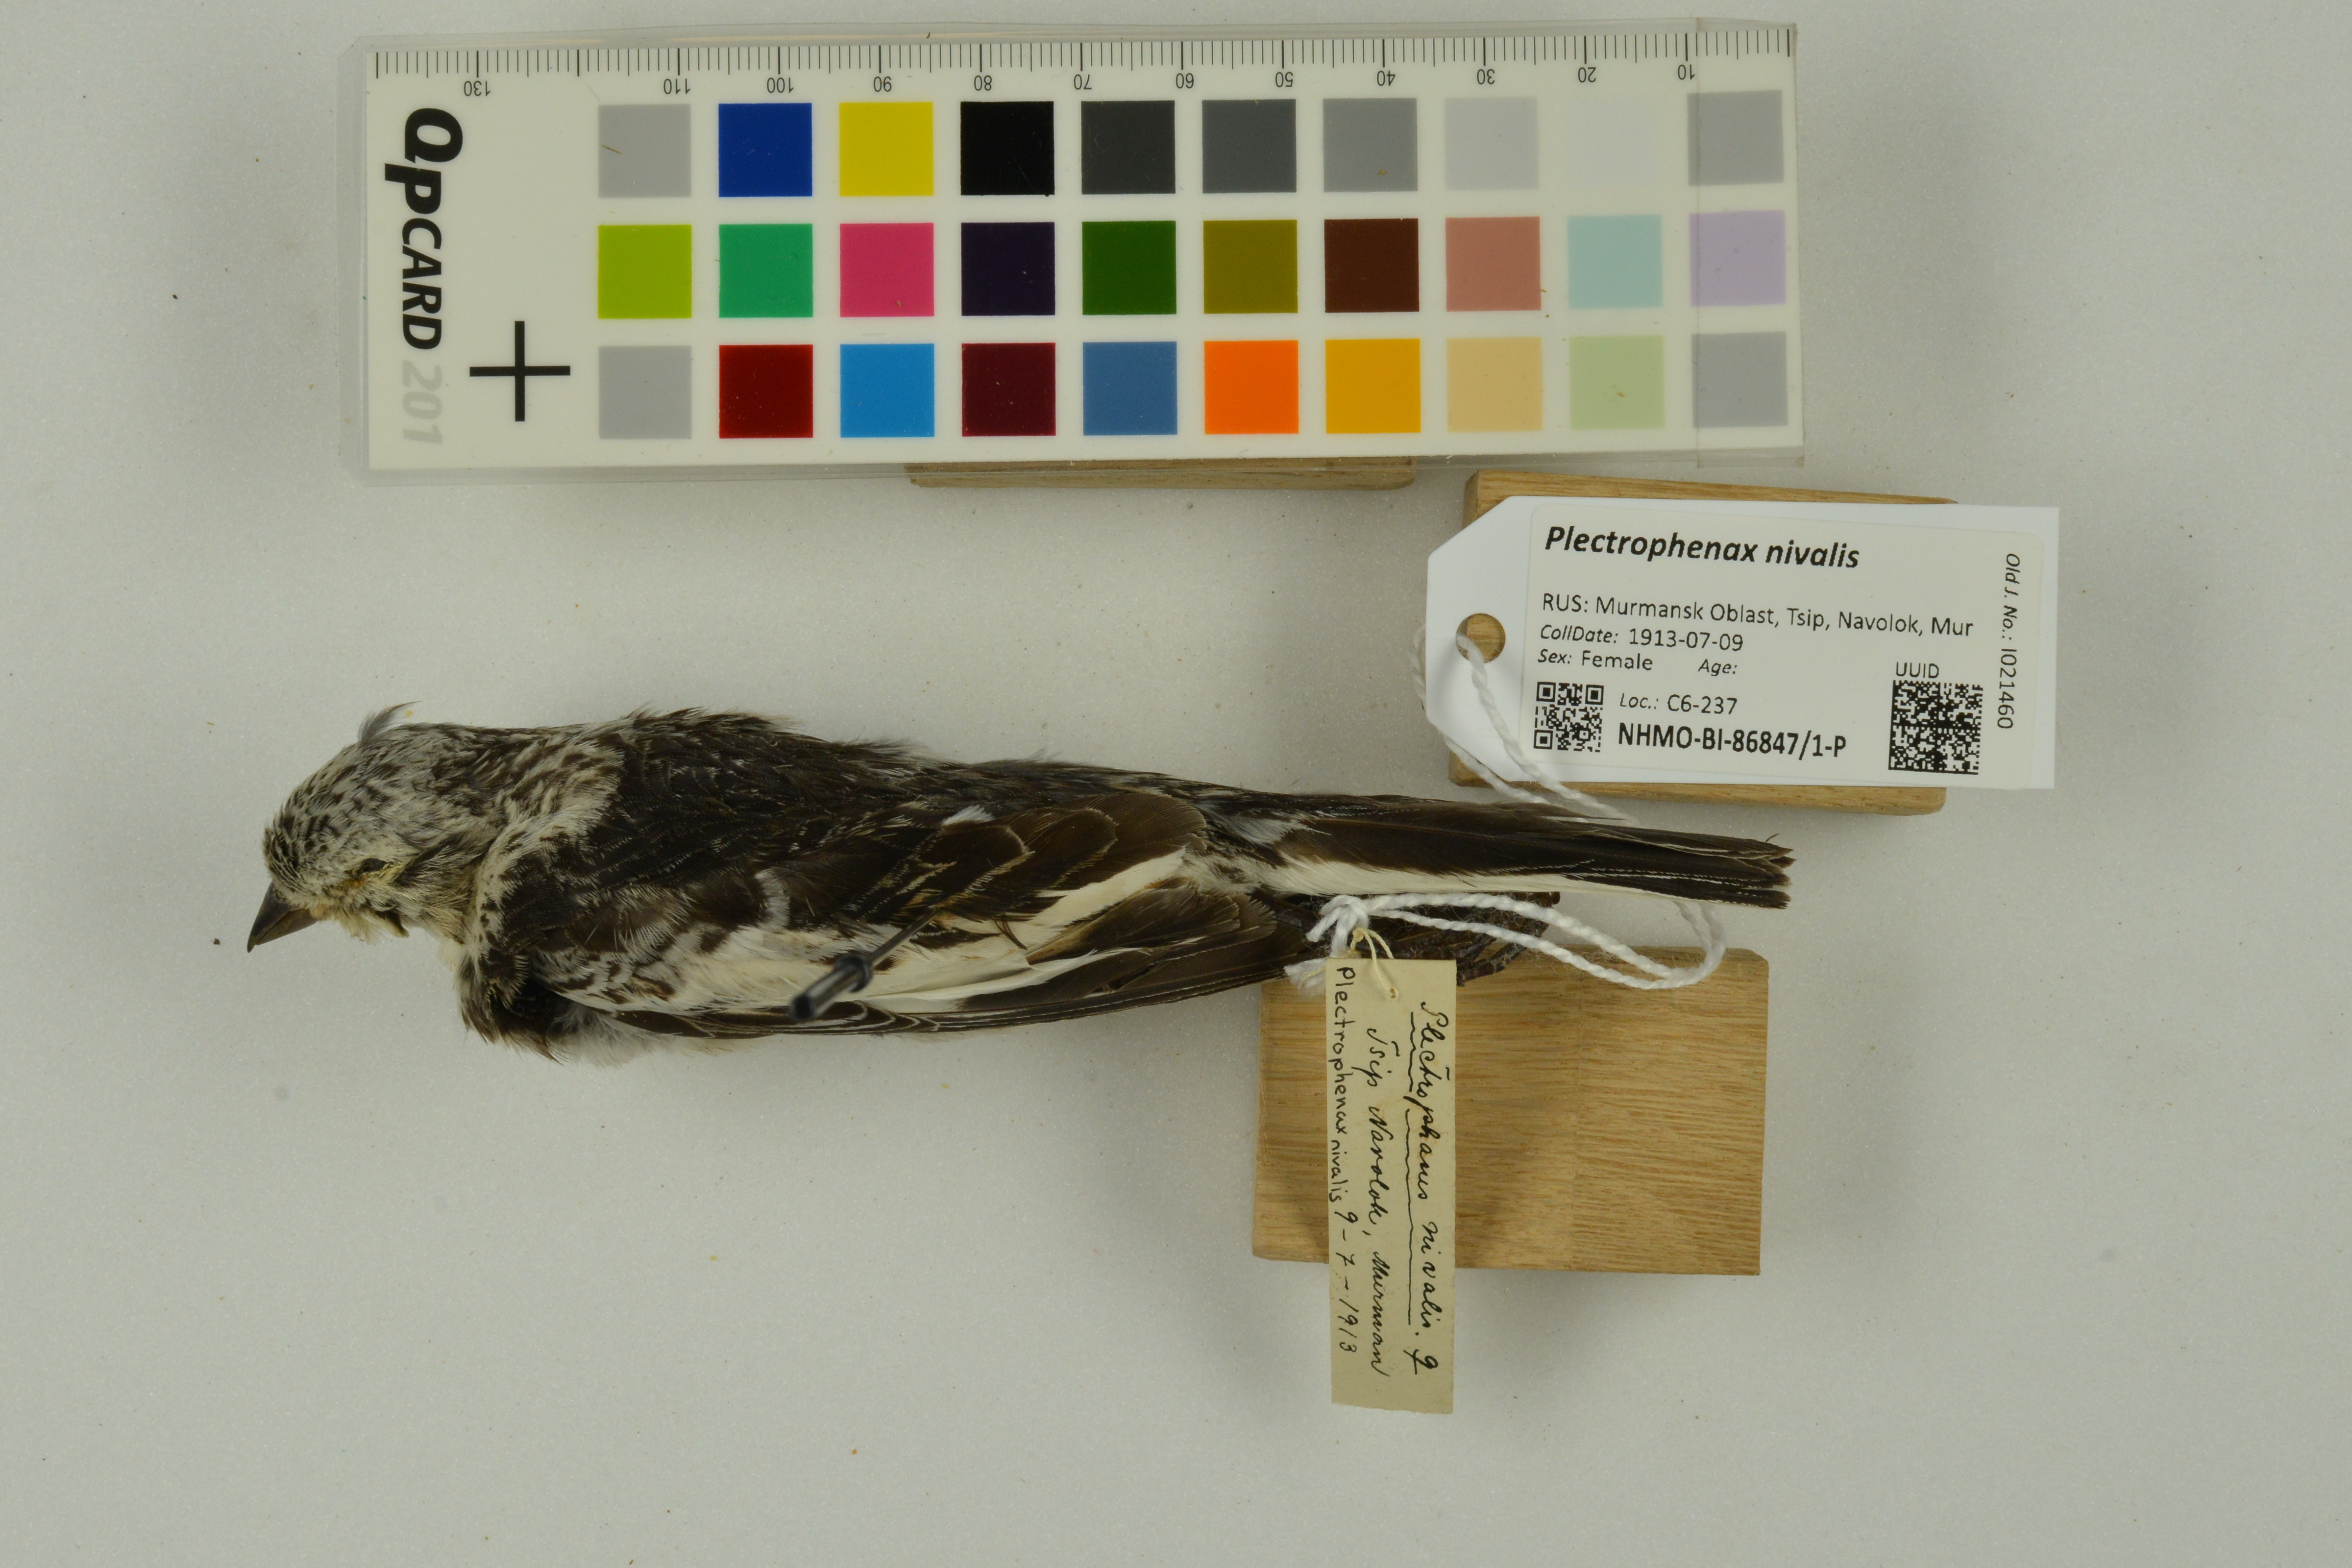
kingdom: Animalia
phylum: Chordata
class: Aves
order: Passeriformes
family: Calcariidae
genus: Plectrophenax
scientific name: Plectrophenax nivalis
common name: Snow bunting
